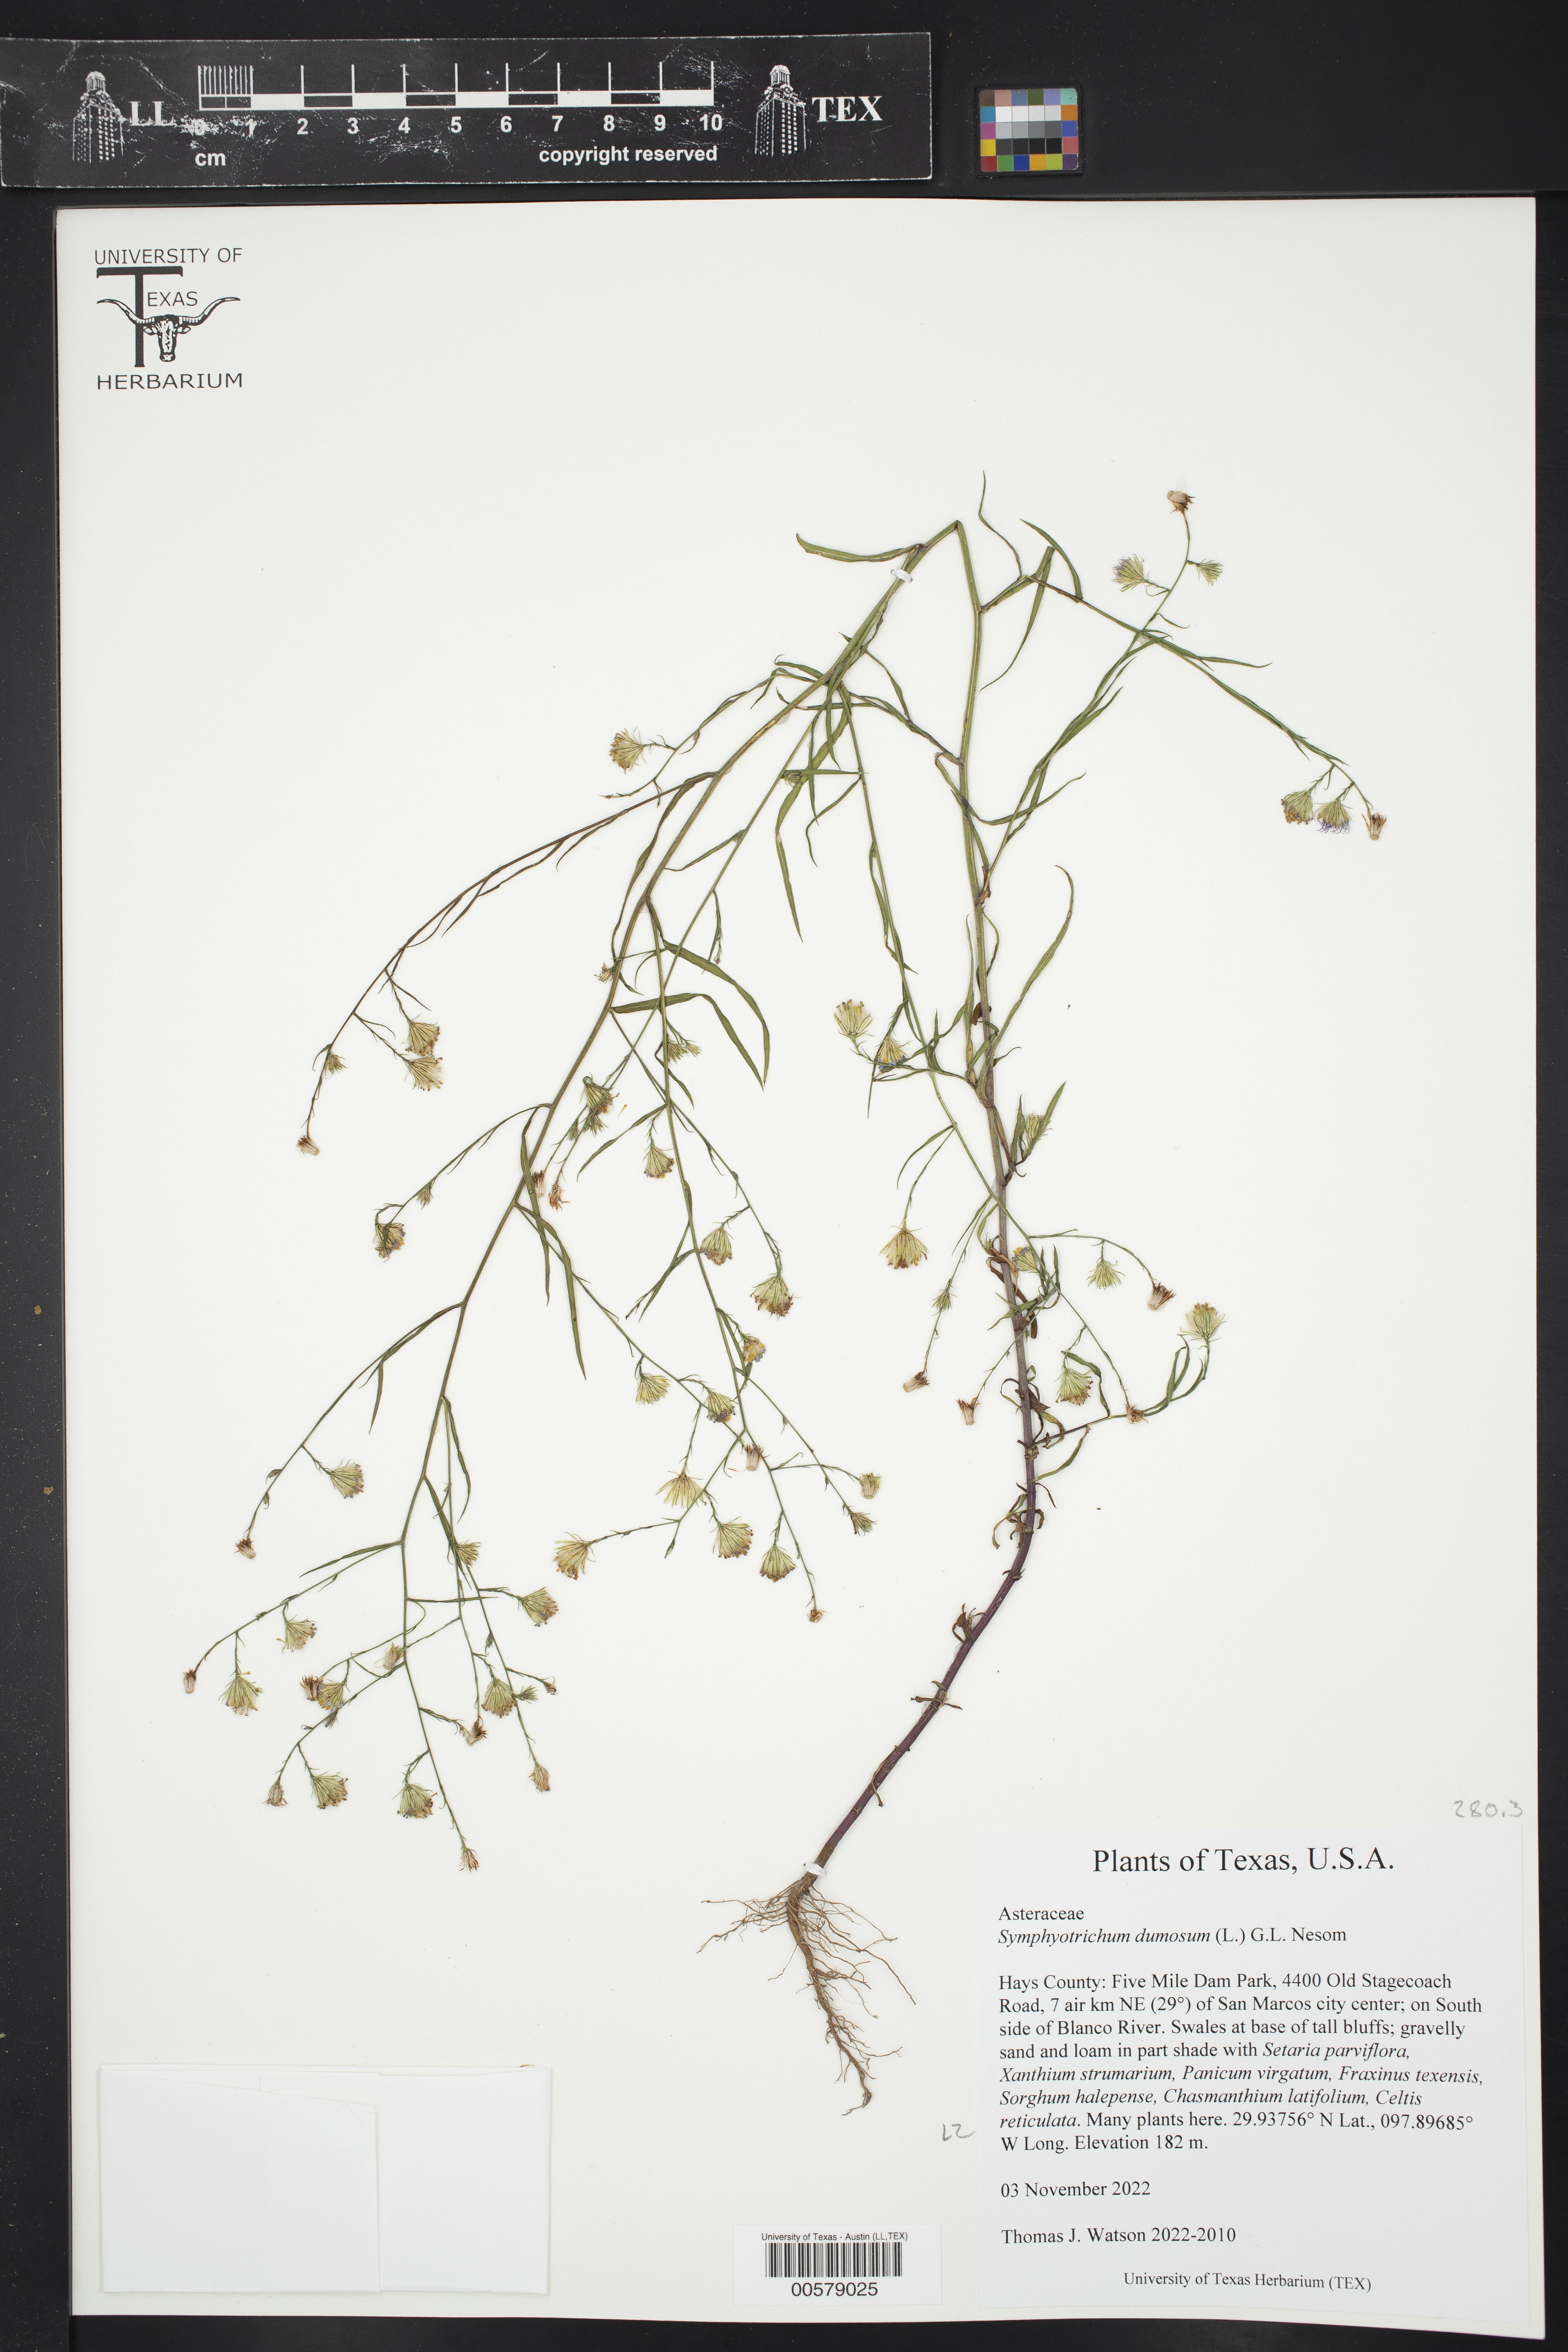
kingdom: Plantae
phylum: Tracheophyta
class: Magnoliopsida
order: Asterales
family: Asteraceae
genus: Symphyotrichum
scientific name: Symphyotrichum dumosum
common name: Bushy aster
